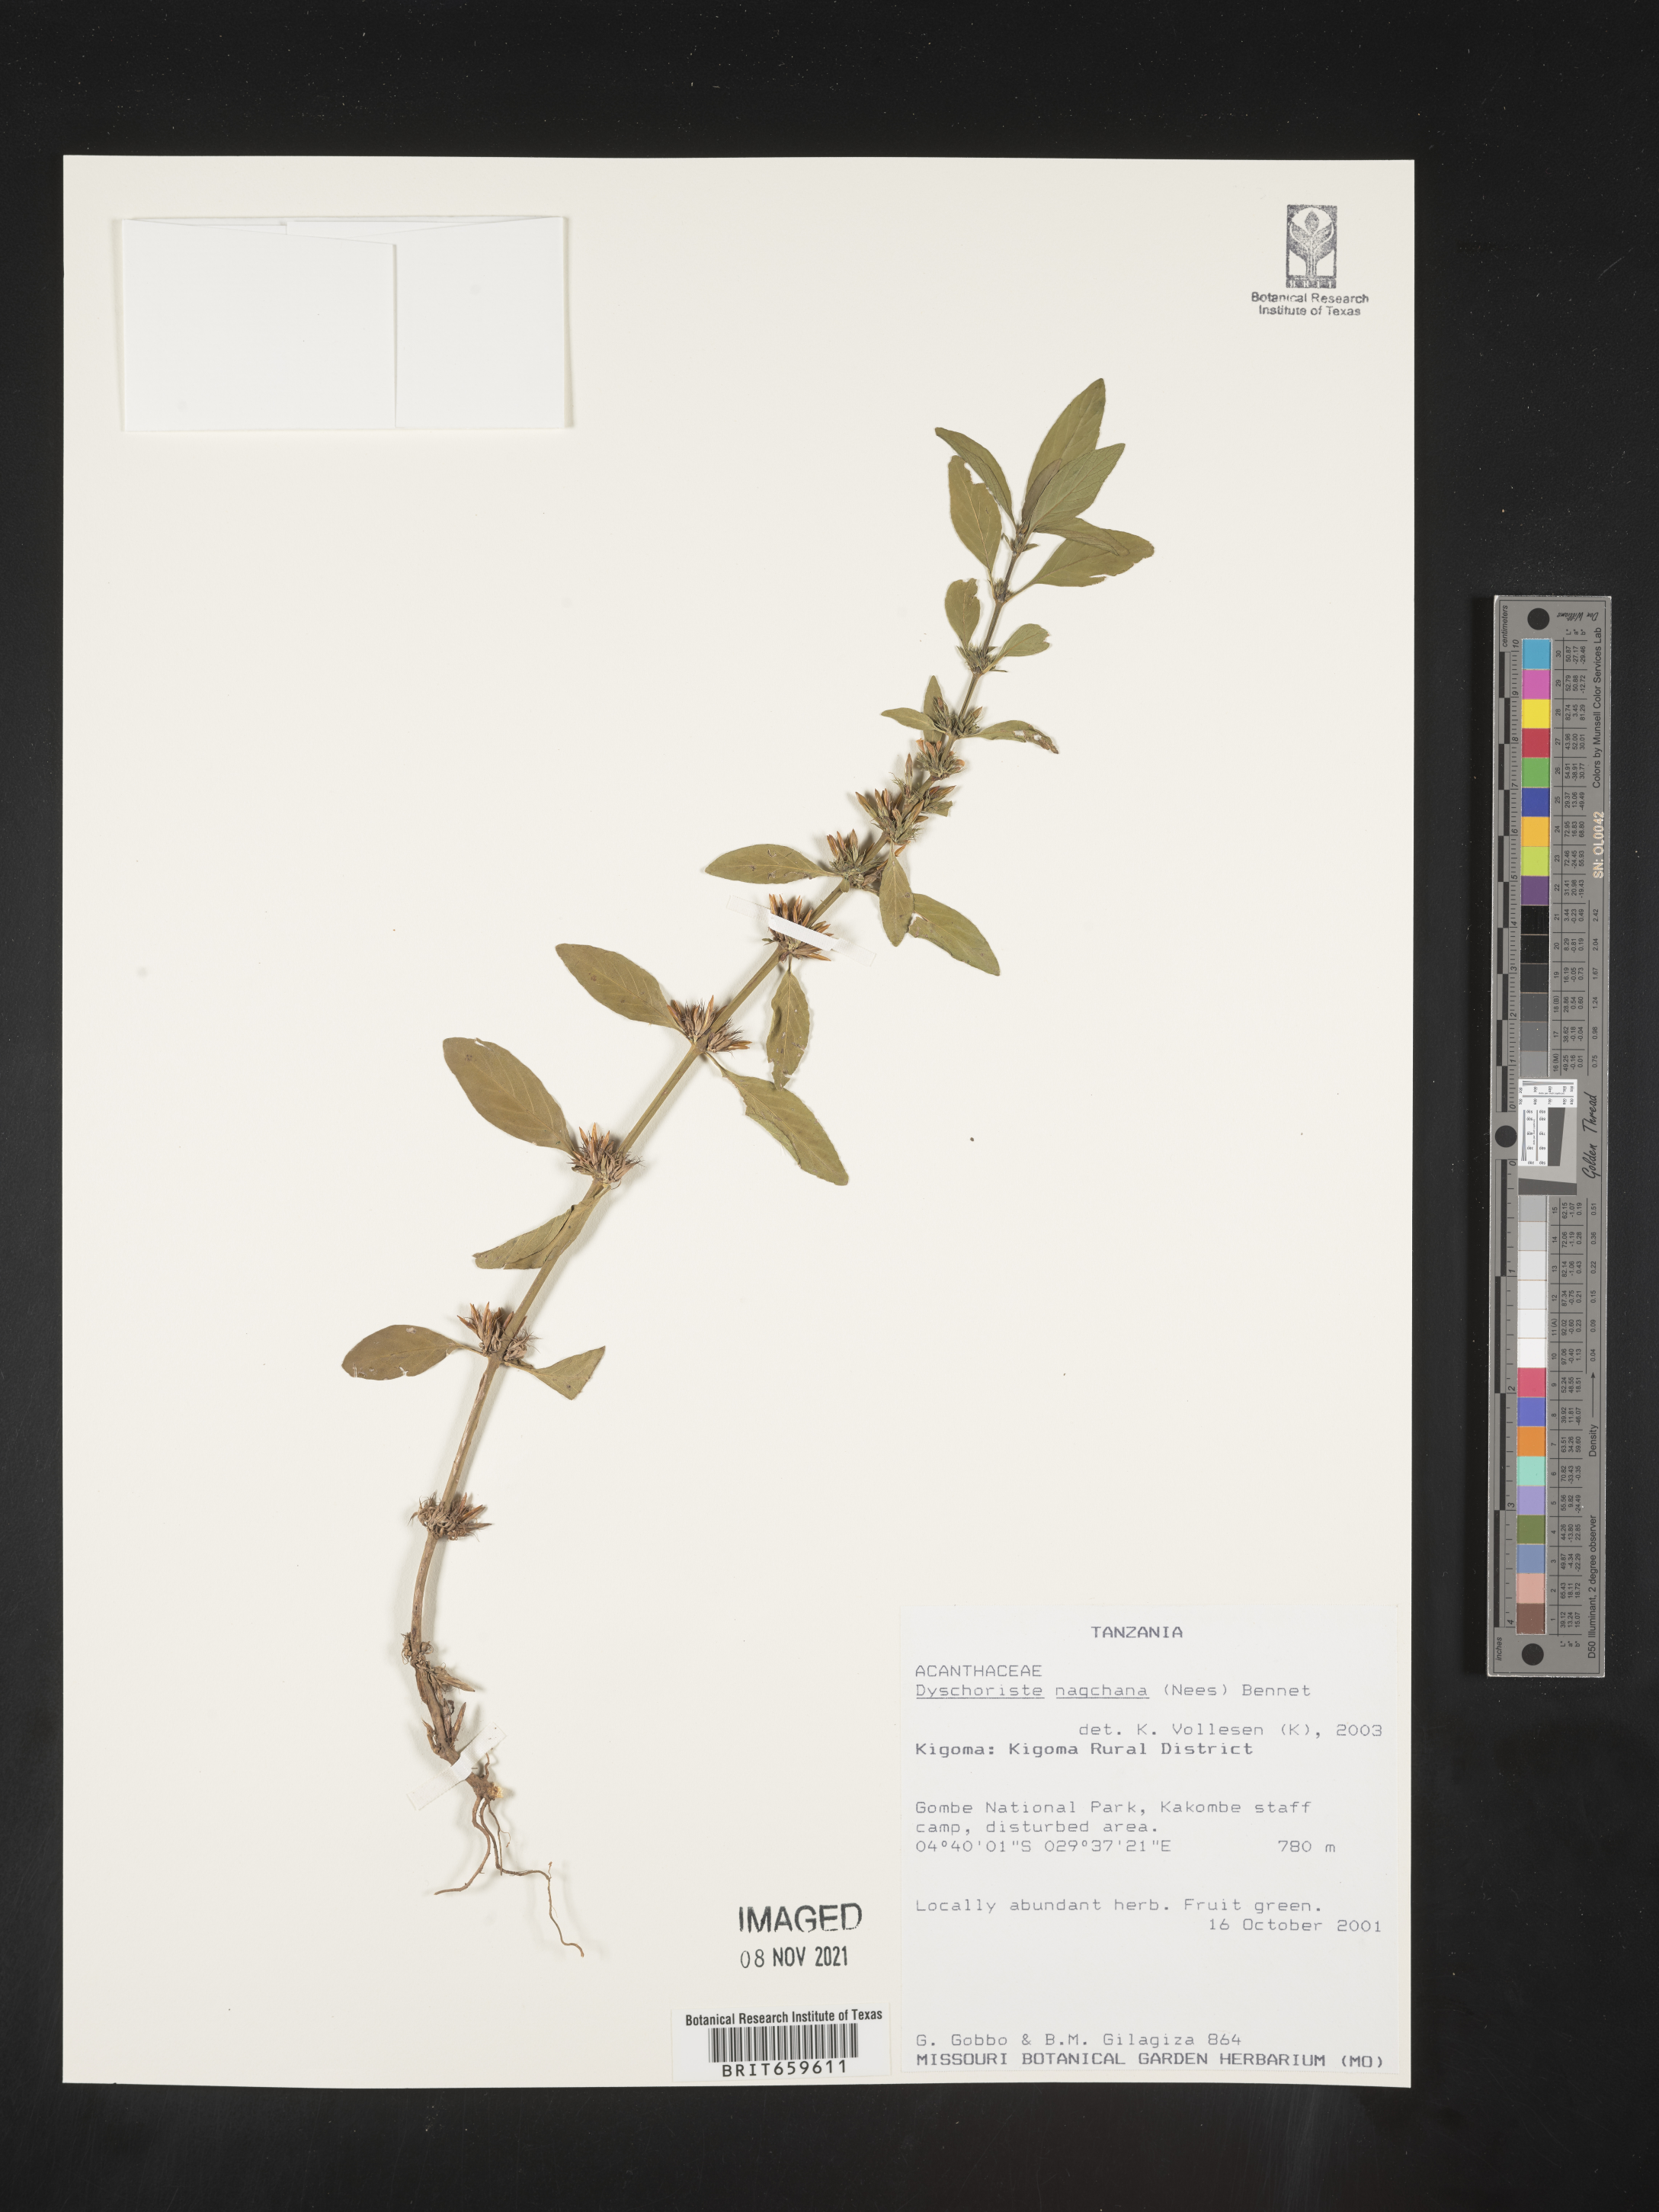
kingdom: Plantae
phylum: Tracheophyta
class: Magnoliopsida
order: Lamiales
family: Acanthaceae
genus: Dyschoriste
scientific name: Dyschoriste nagchana
